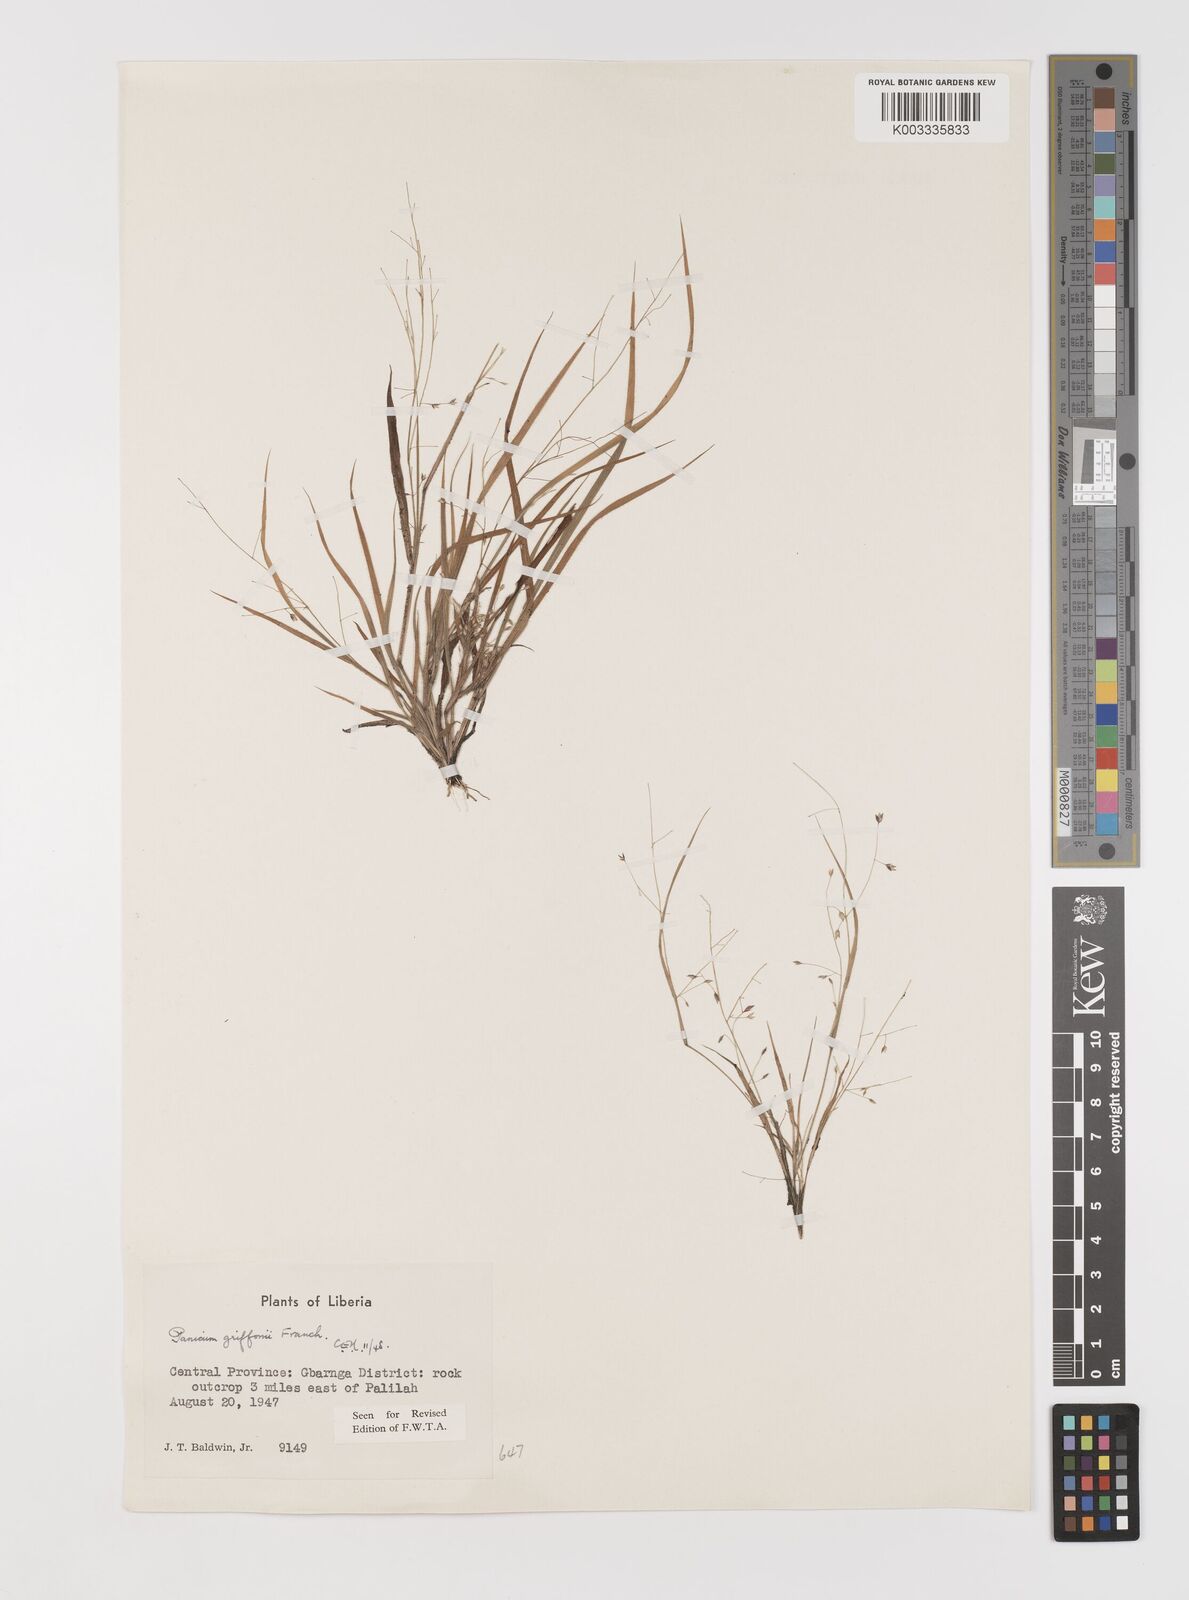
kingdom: Plantae
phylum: Tracheophyta
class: Liliopsida
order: Poales
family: Poaceae
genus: Panicum
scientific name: Panicum griffonii
